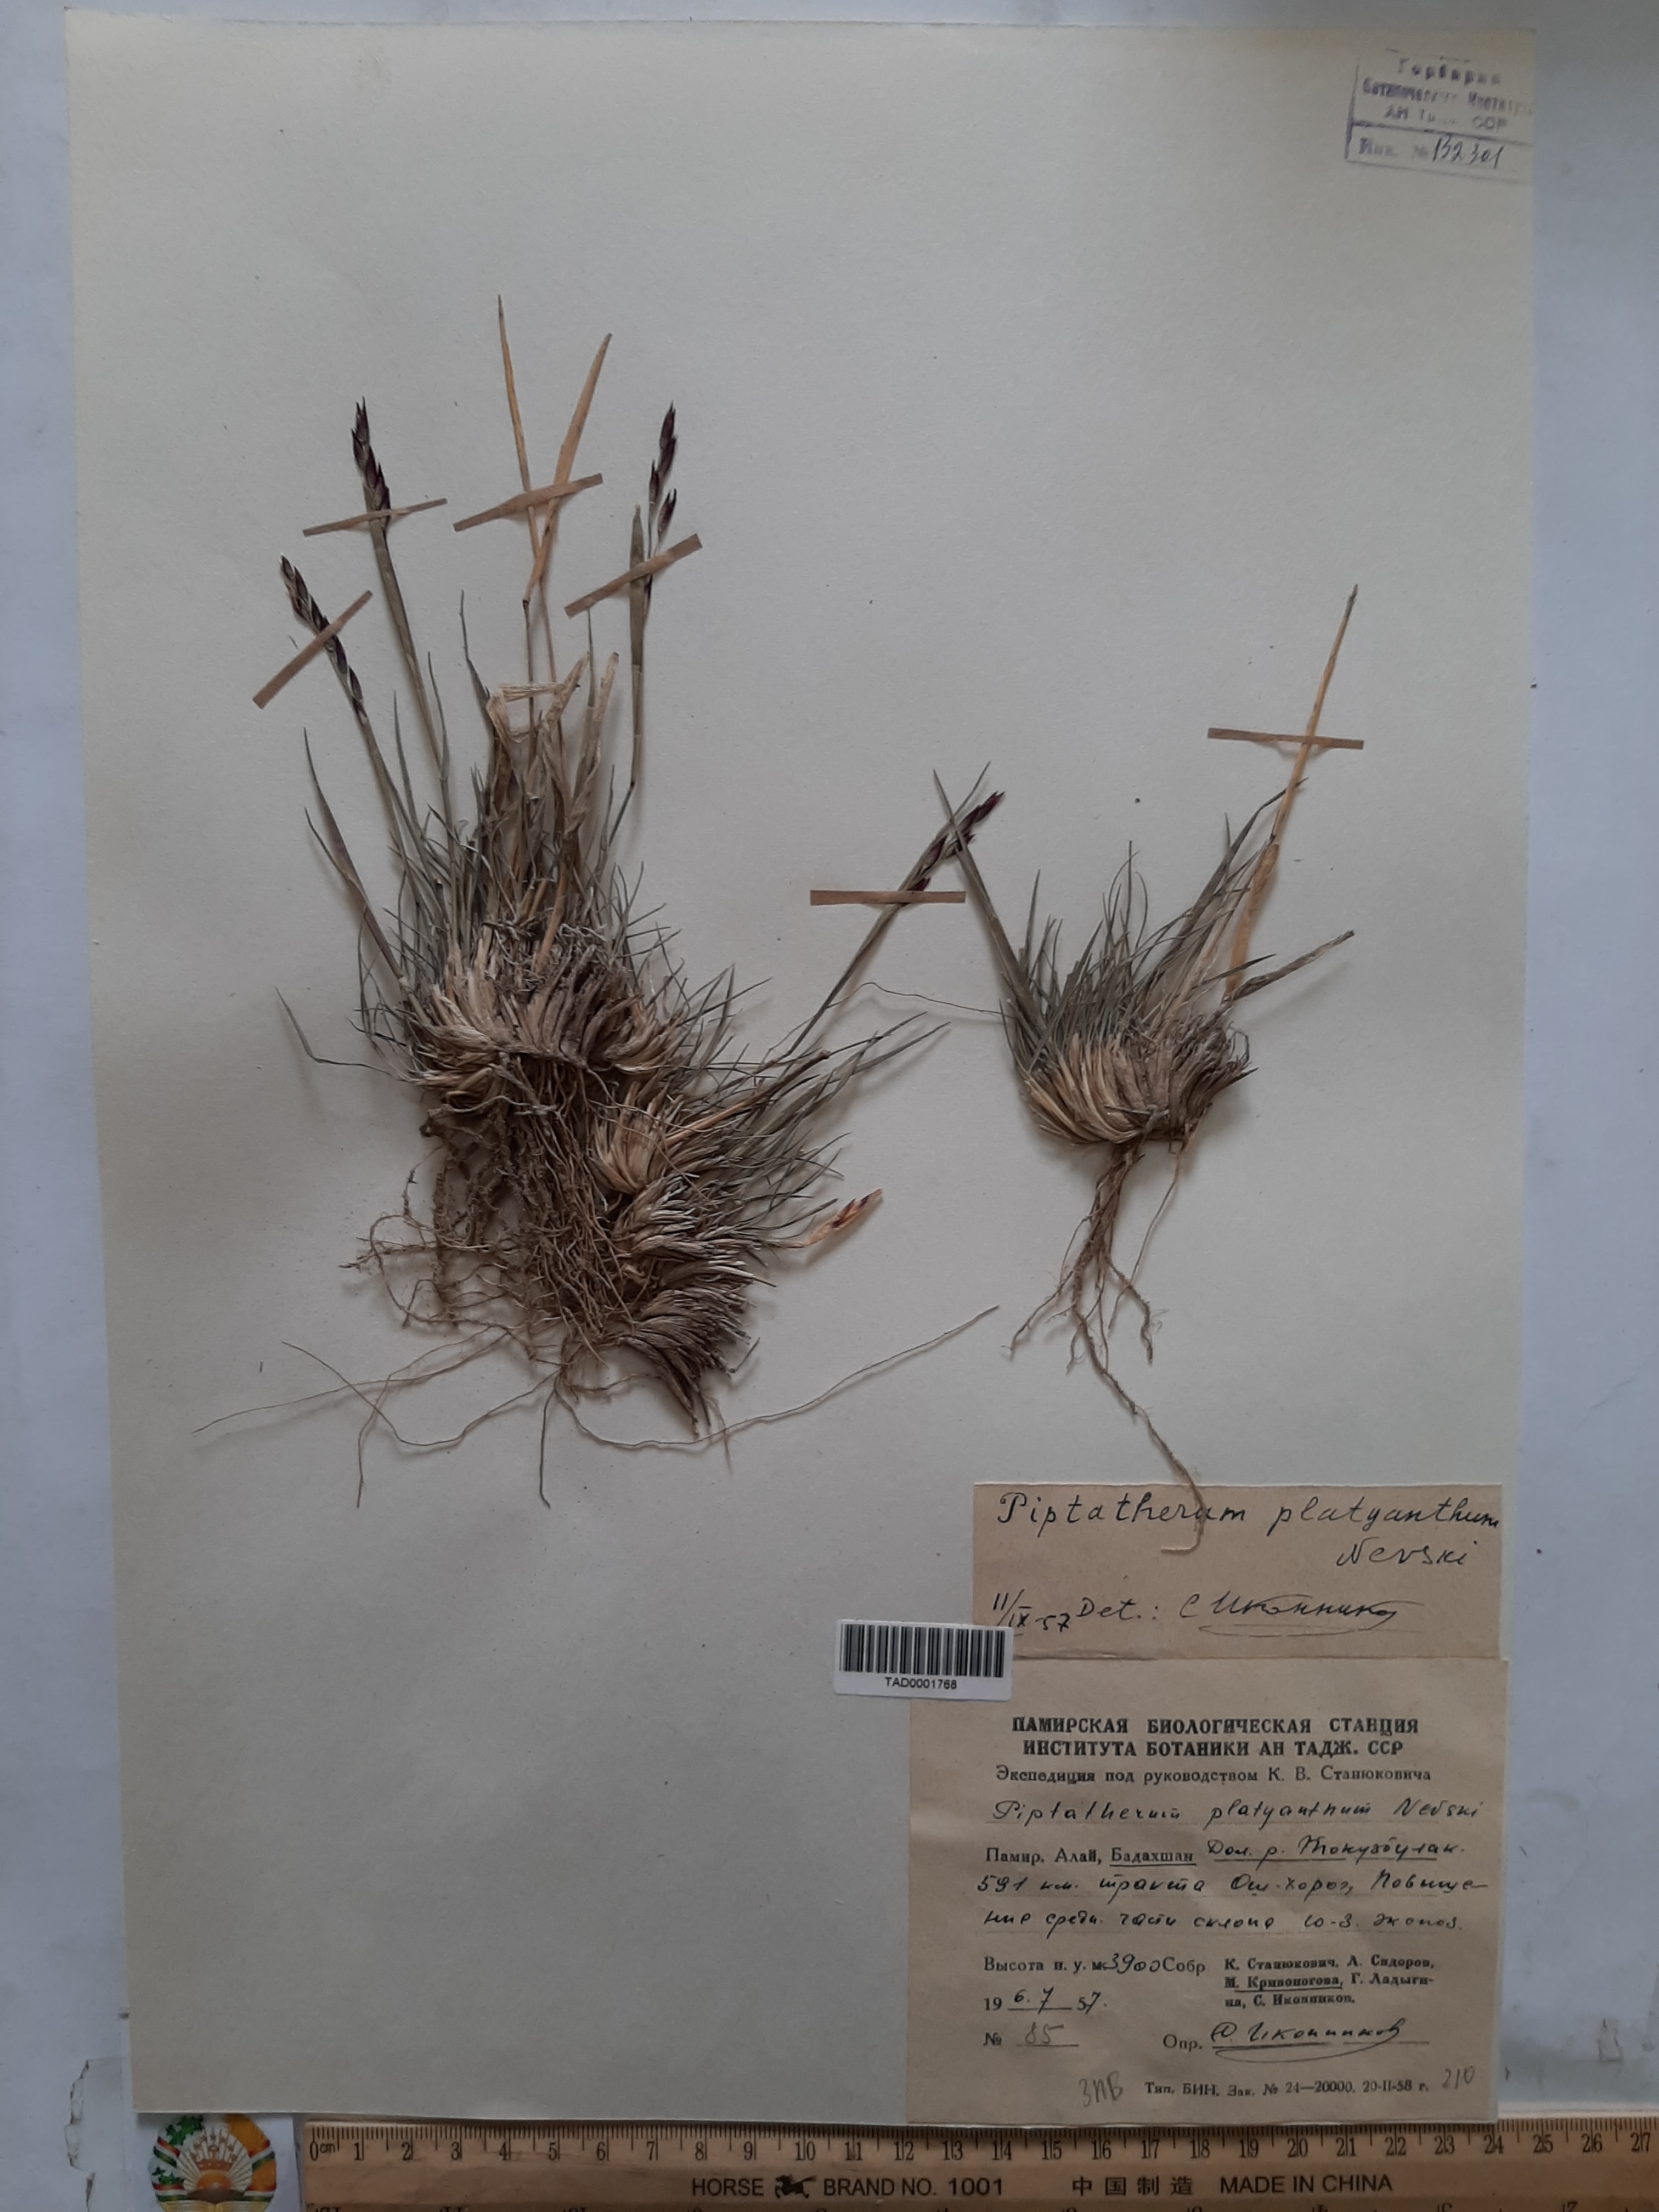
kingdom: Plantae
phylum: Tracheophyta
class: Liliopsida
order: Poales
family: Poaceae
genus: Piptatherum
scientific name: Piptatherum platyanthum
